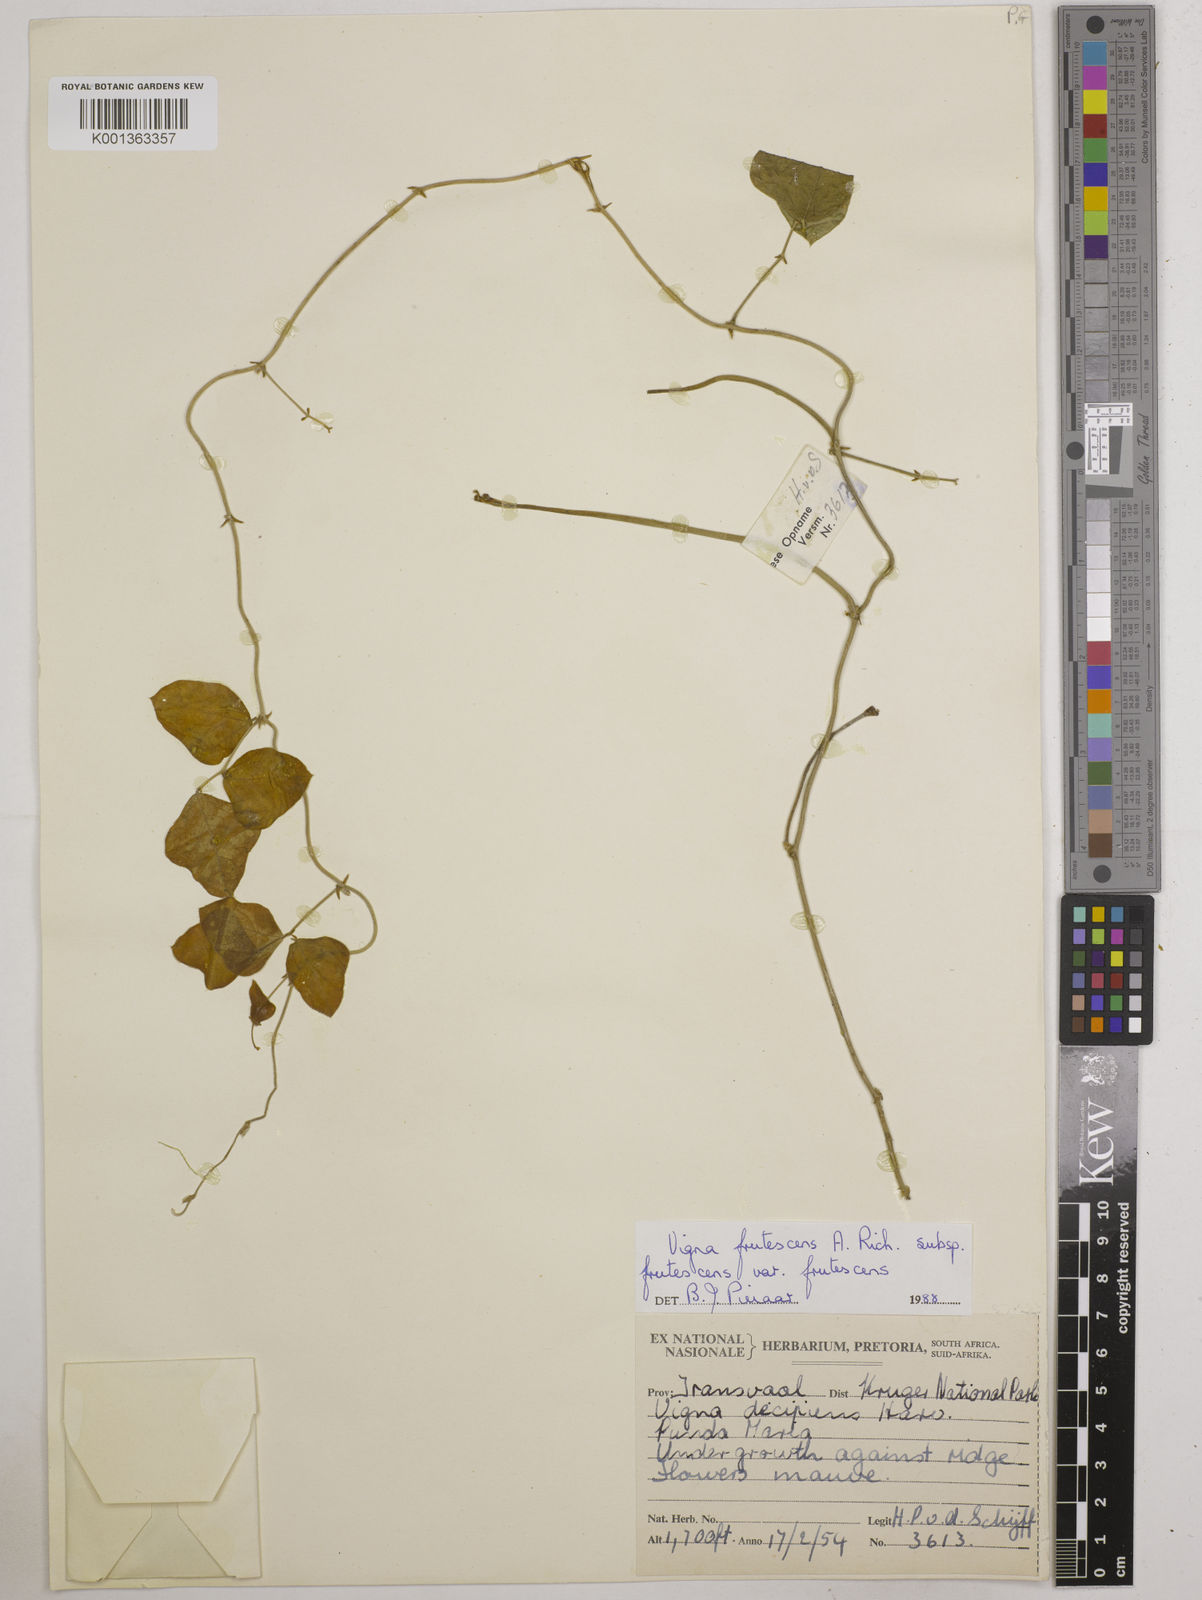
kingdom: Plantae
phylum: Tracheophyta
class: Magnoliopsida
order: Fabales
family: Fabaceae
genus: Vigna
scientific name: Vigna frutescens
